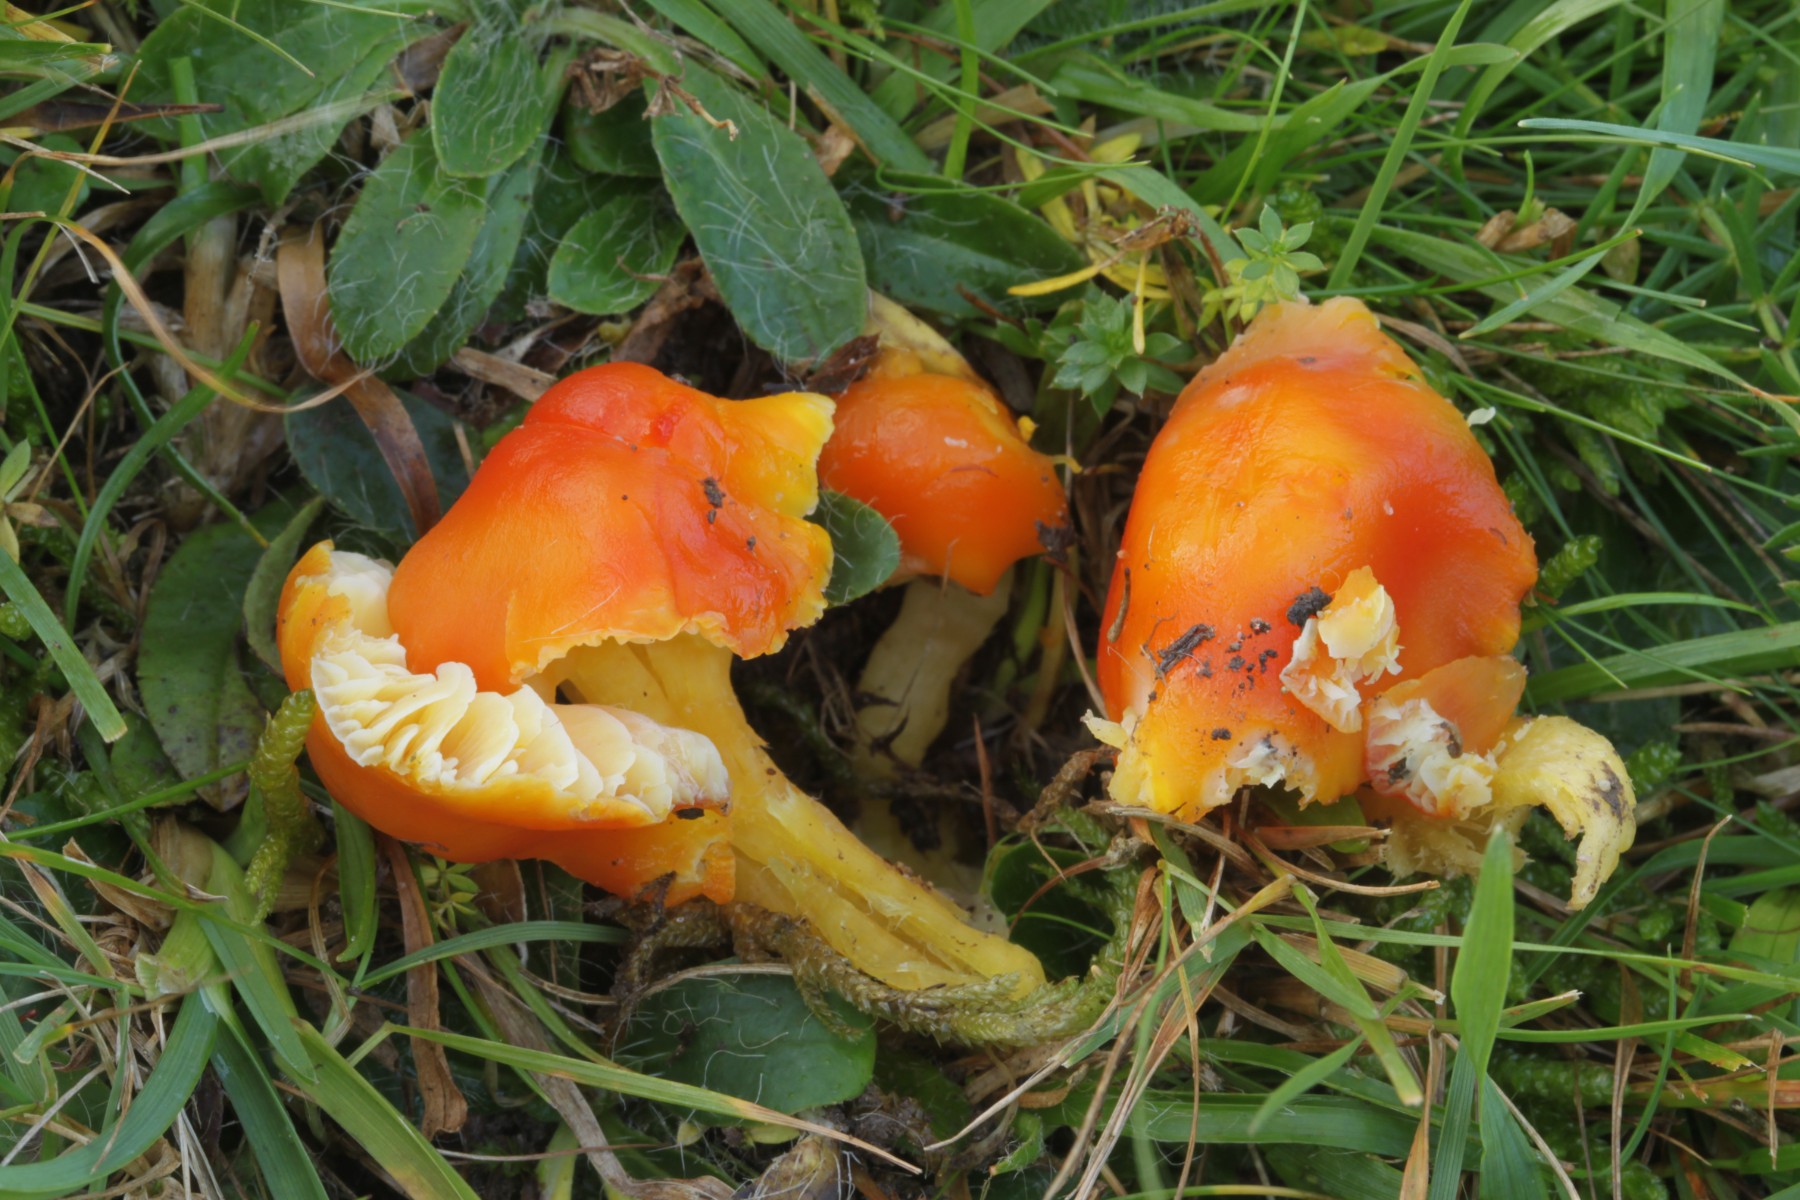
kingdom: Fungi
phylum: Basidiomycota
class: Agaricomycetes
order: Agaricales
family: Hygrophoraceae
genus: Hygrocybe
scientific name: Hygrocybe
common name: vokshat
